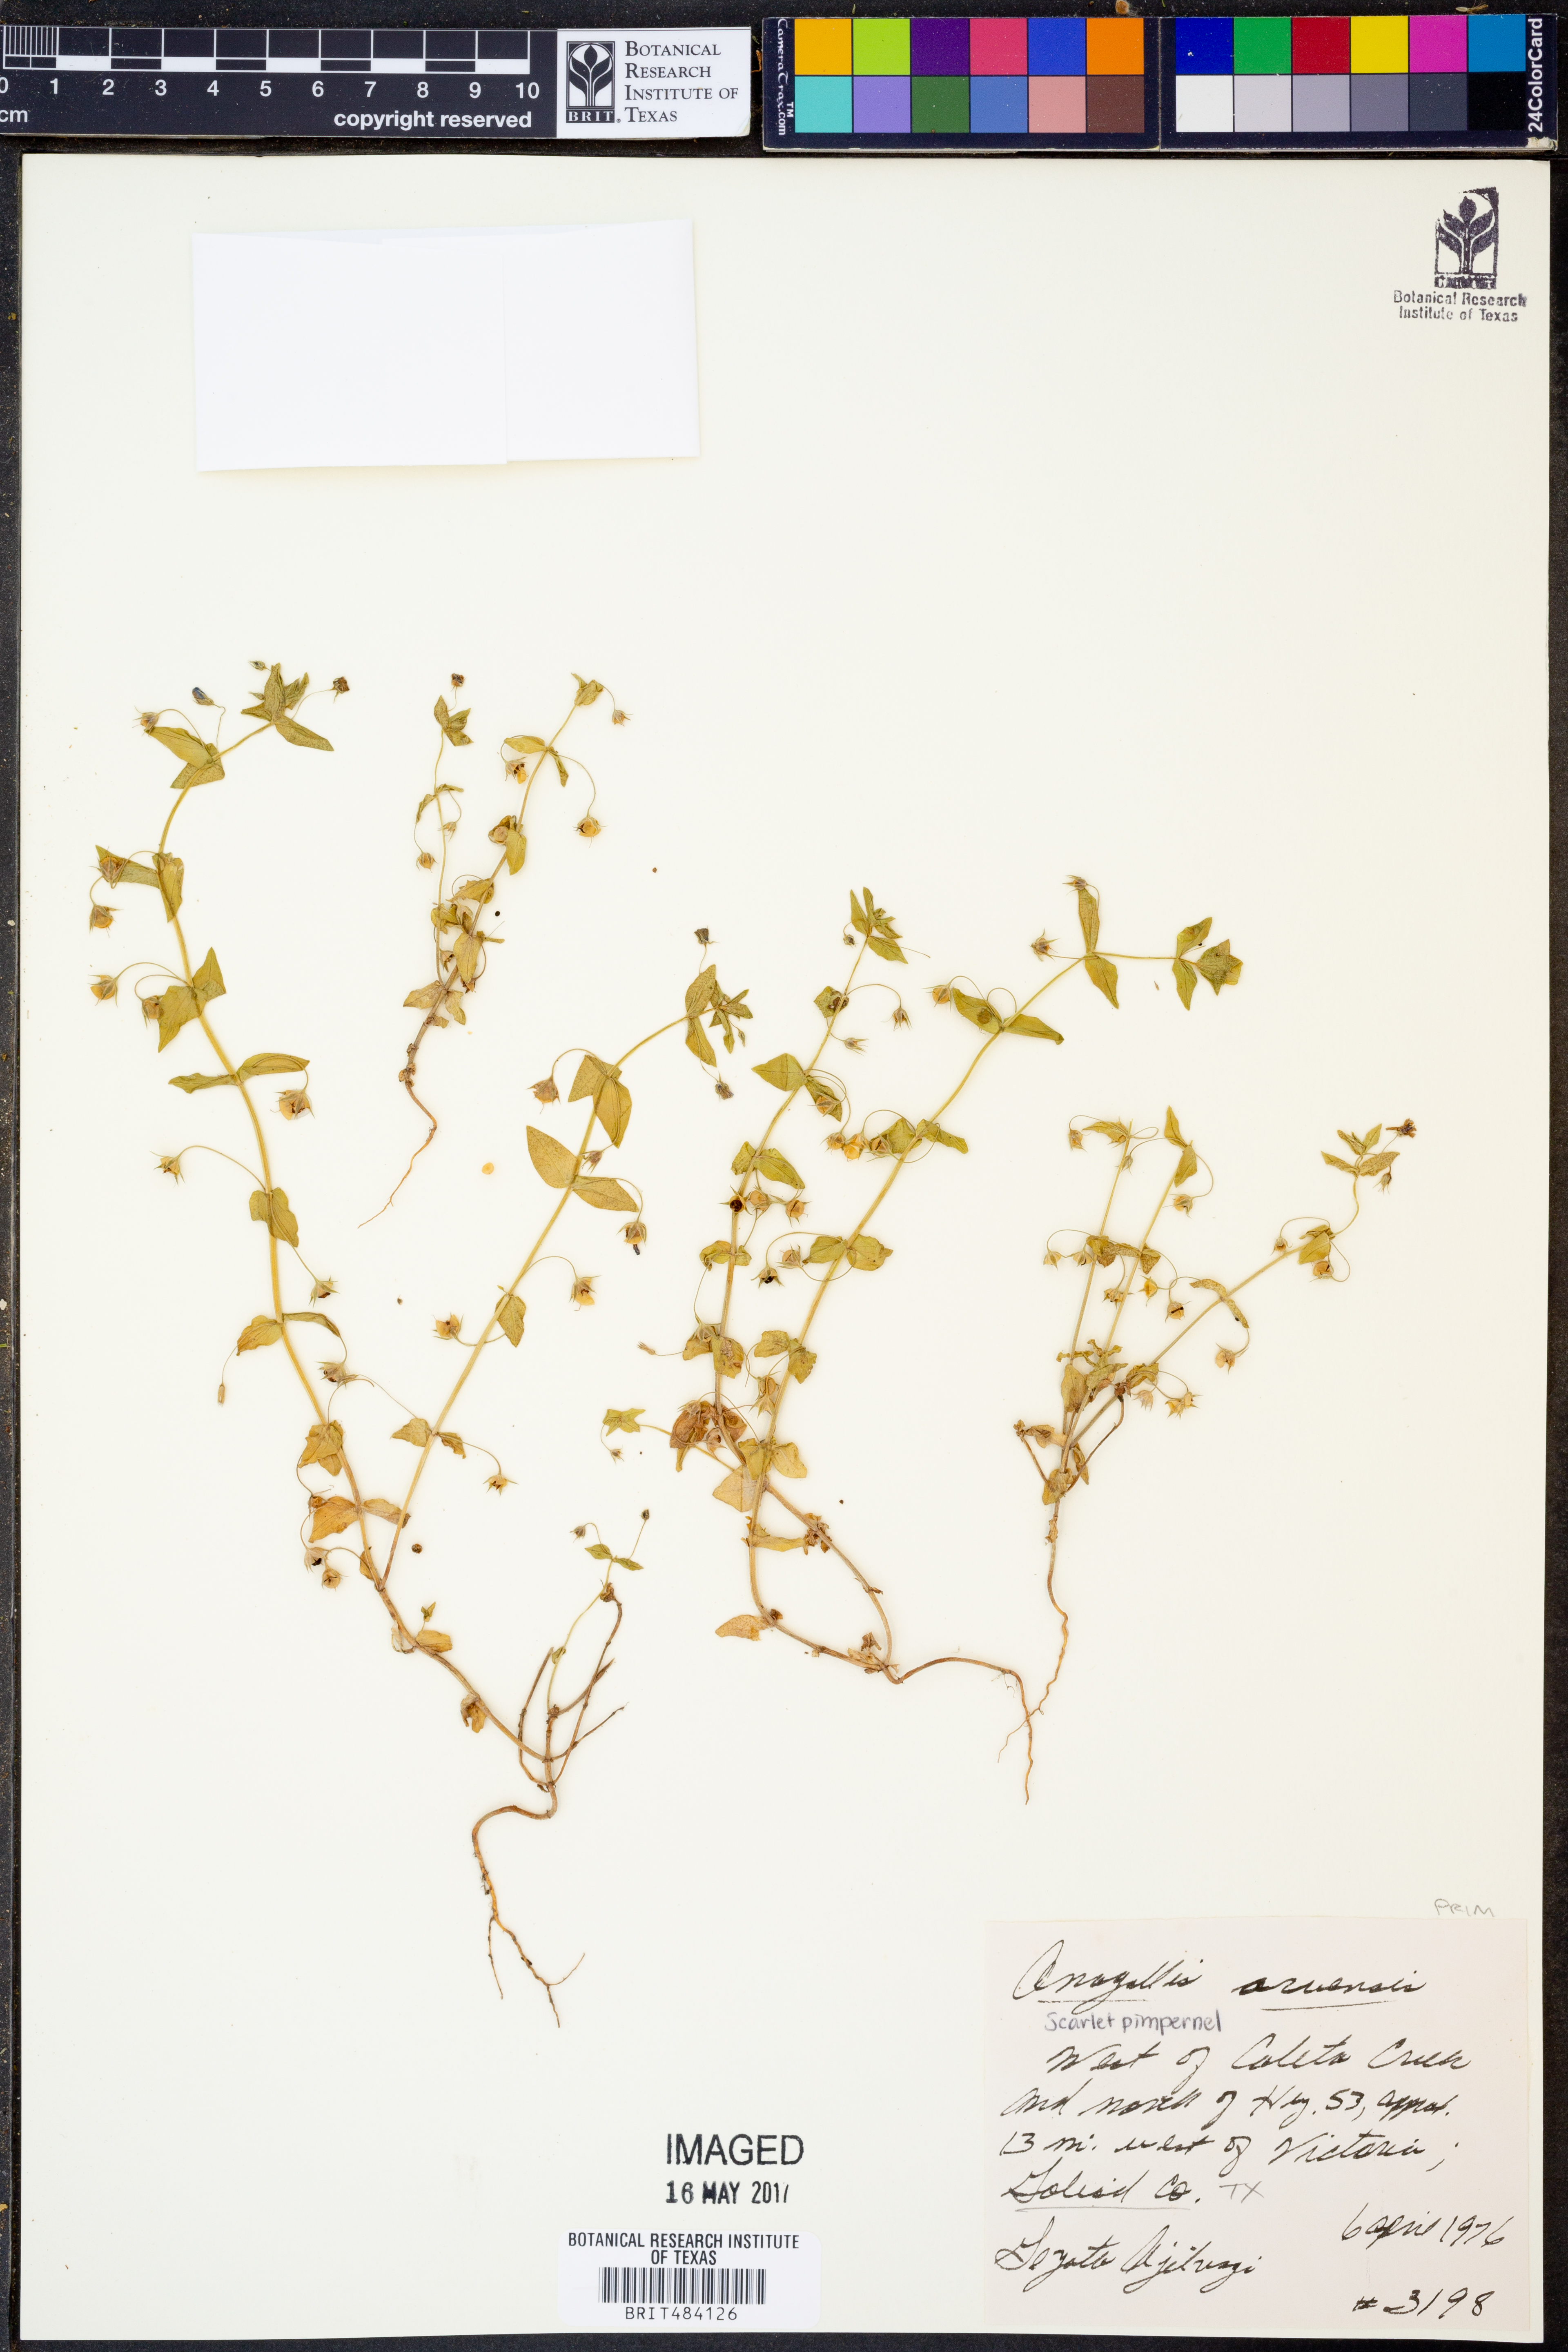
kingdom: Plantae
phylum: Tracheophyta
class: Magnoliopsida
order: Ericales
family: Primulaceae
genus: Lysimachia
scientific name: Lysimachia arvensis
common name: Scarlet pimpernel
